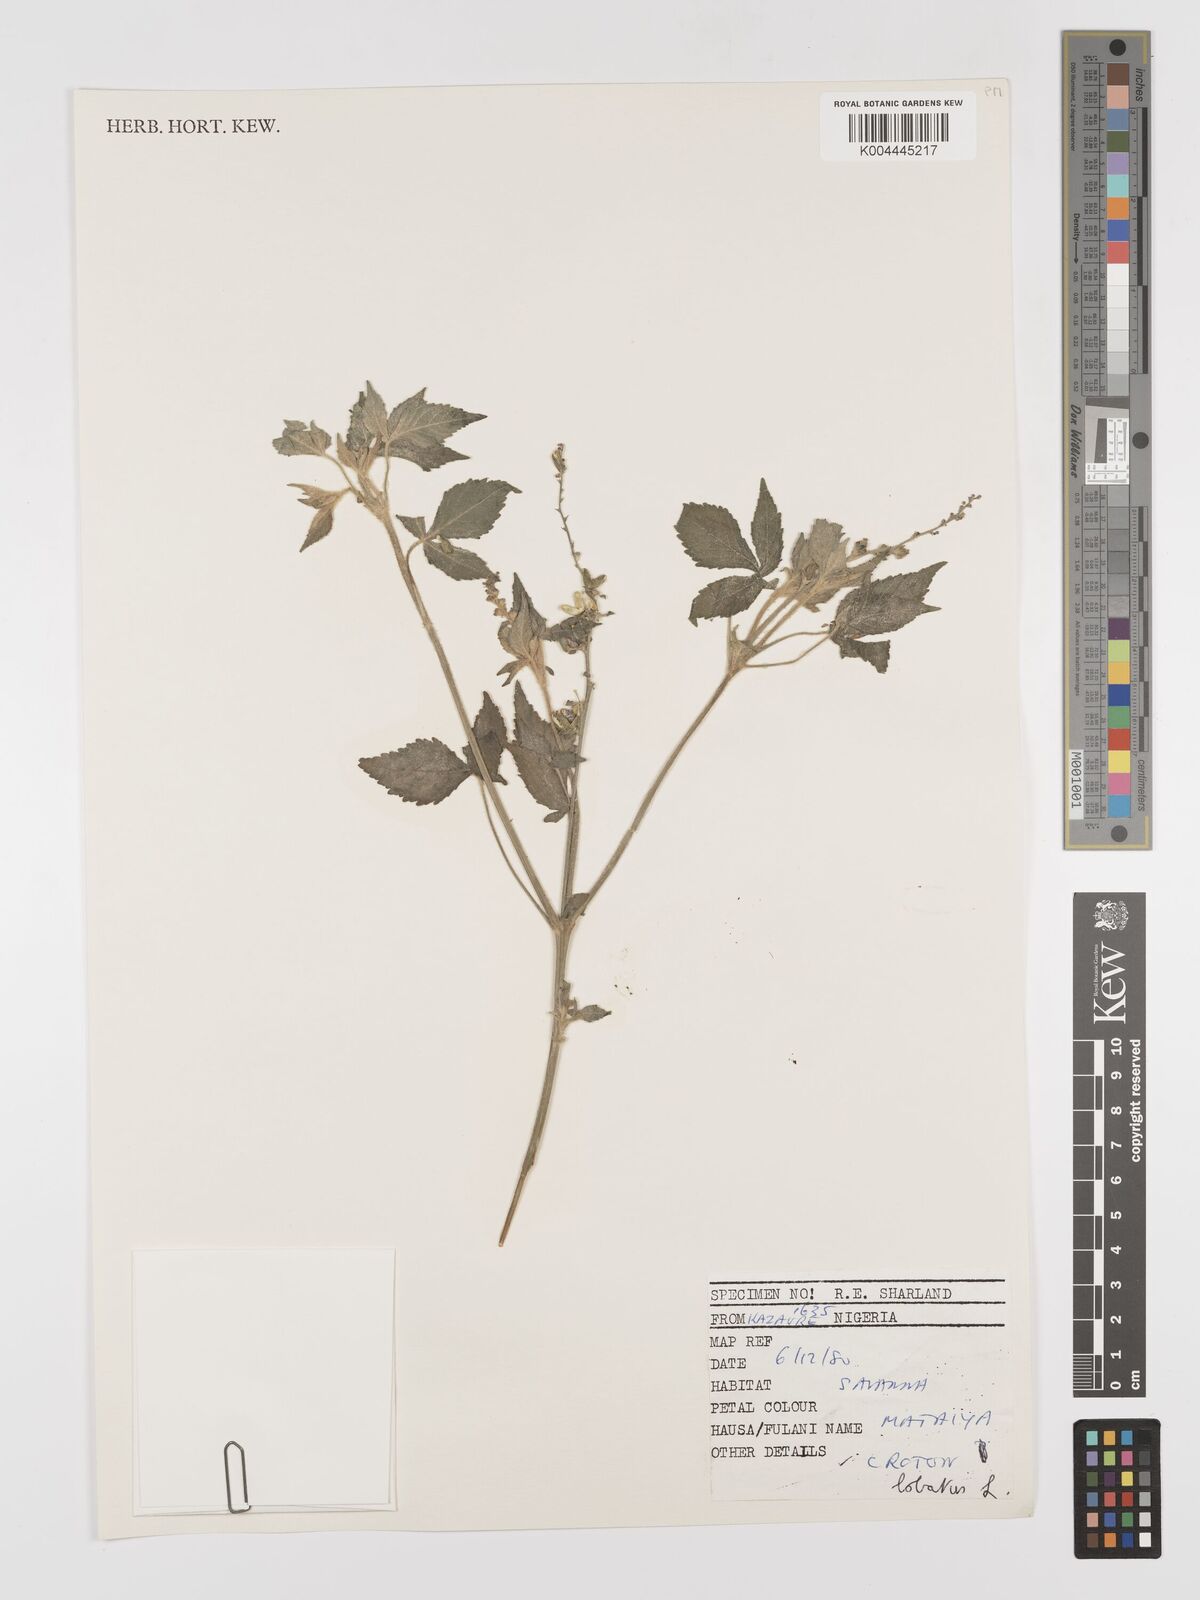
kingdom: Plantae
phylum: Tracheophyta
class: Magnoliopsida
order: Malpighiales
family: Euphorbiaceae
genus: Astraea
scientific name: Astraea lobata
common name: Lobed croton
